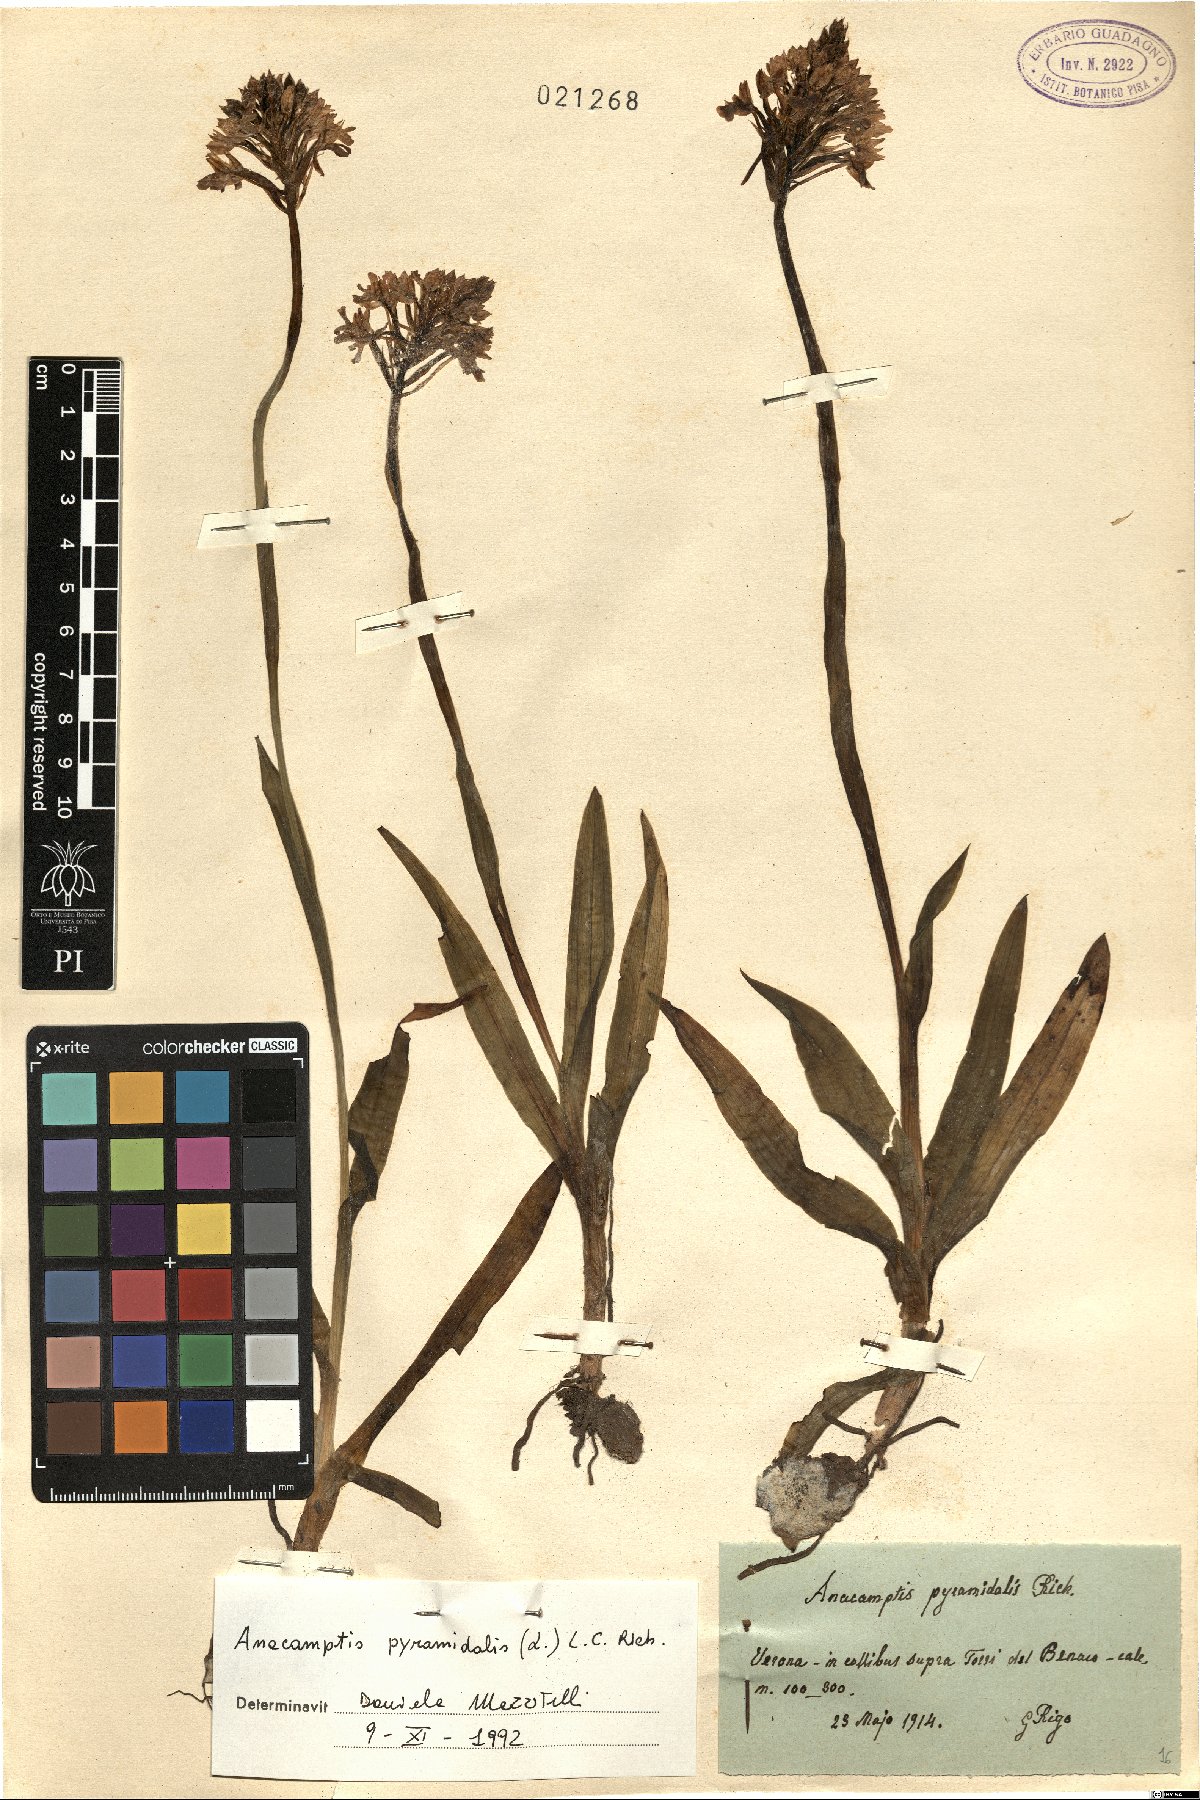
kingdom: Plantae
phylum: Tracheophyta
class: Liliopsida
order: Asparagales
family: Orchidaceae
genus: Anacamptis
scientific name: Anacamptis pyramidalis
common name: Pyramidal orchid
